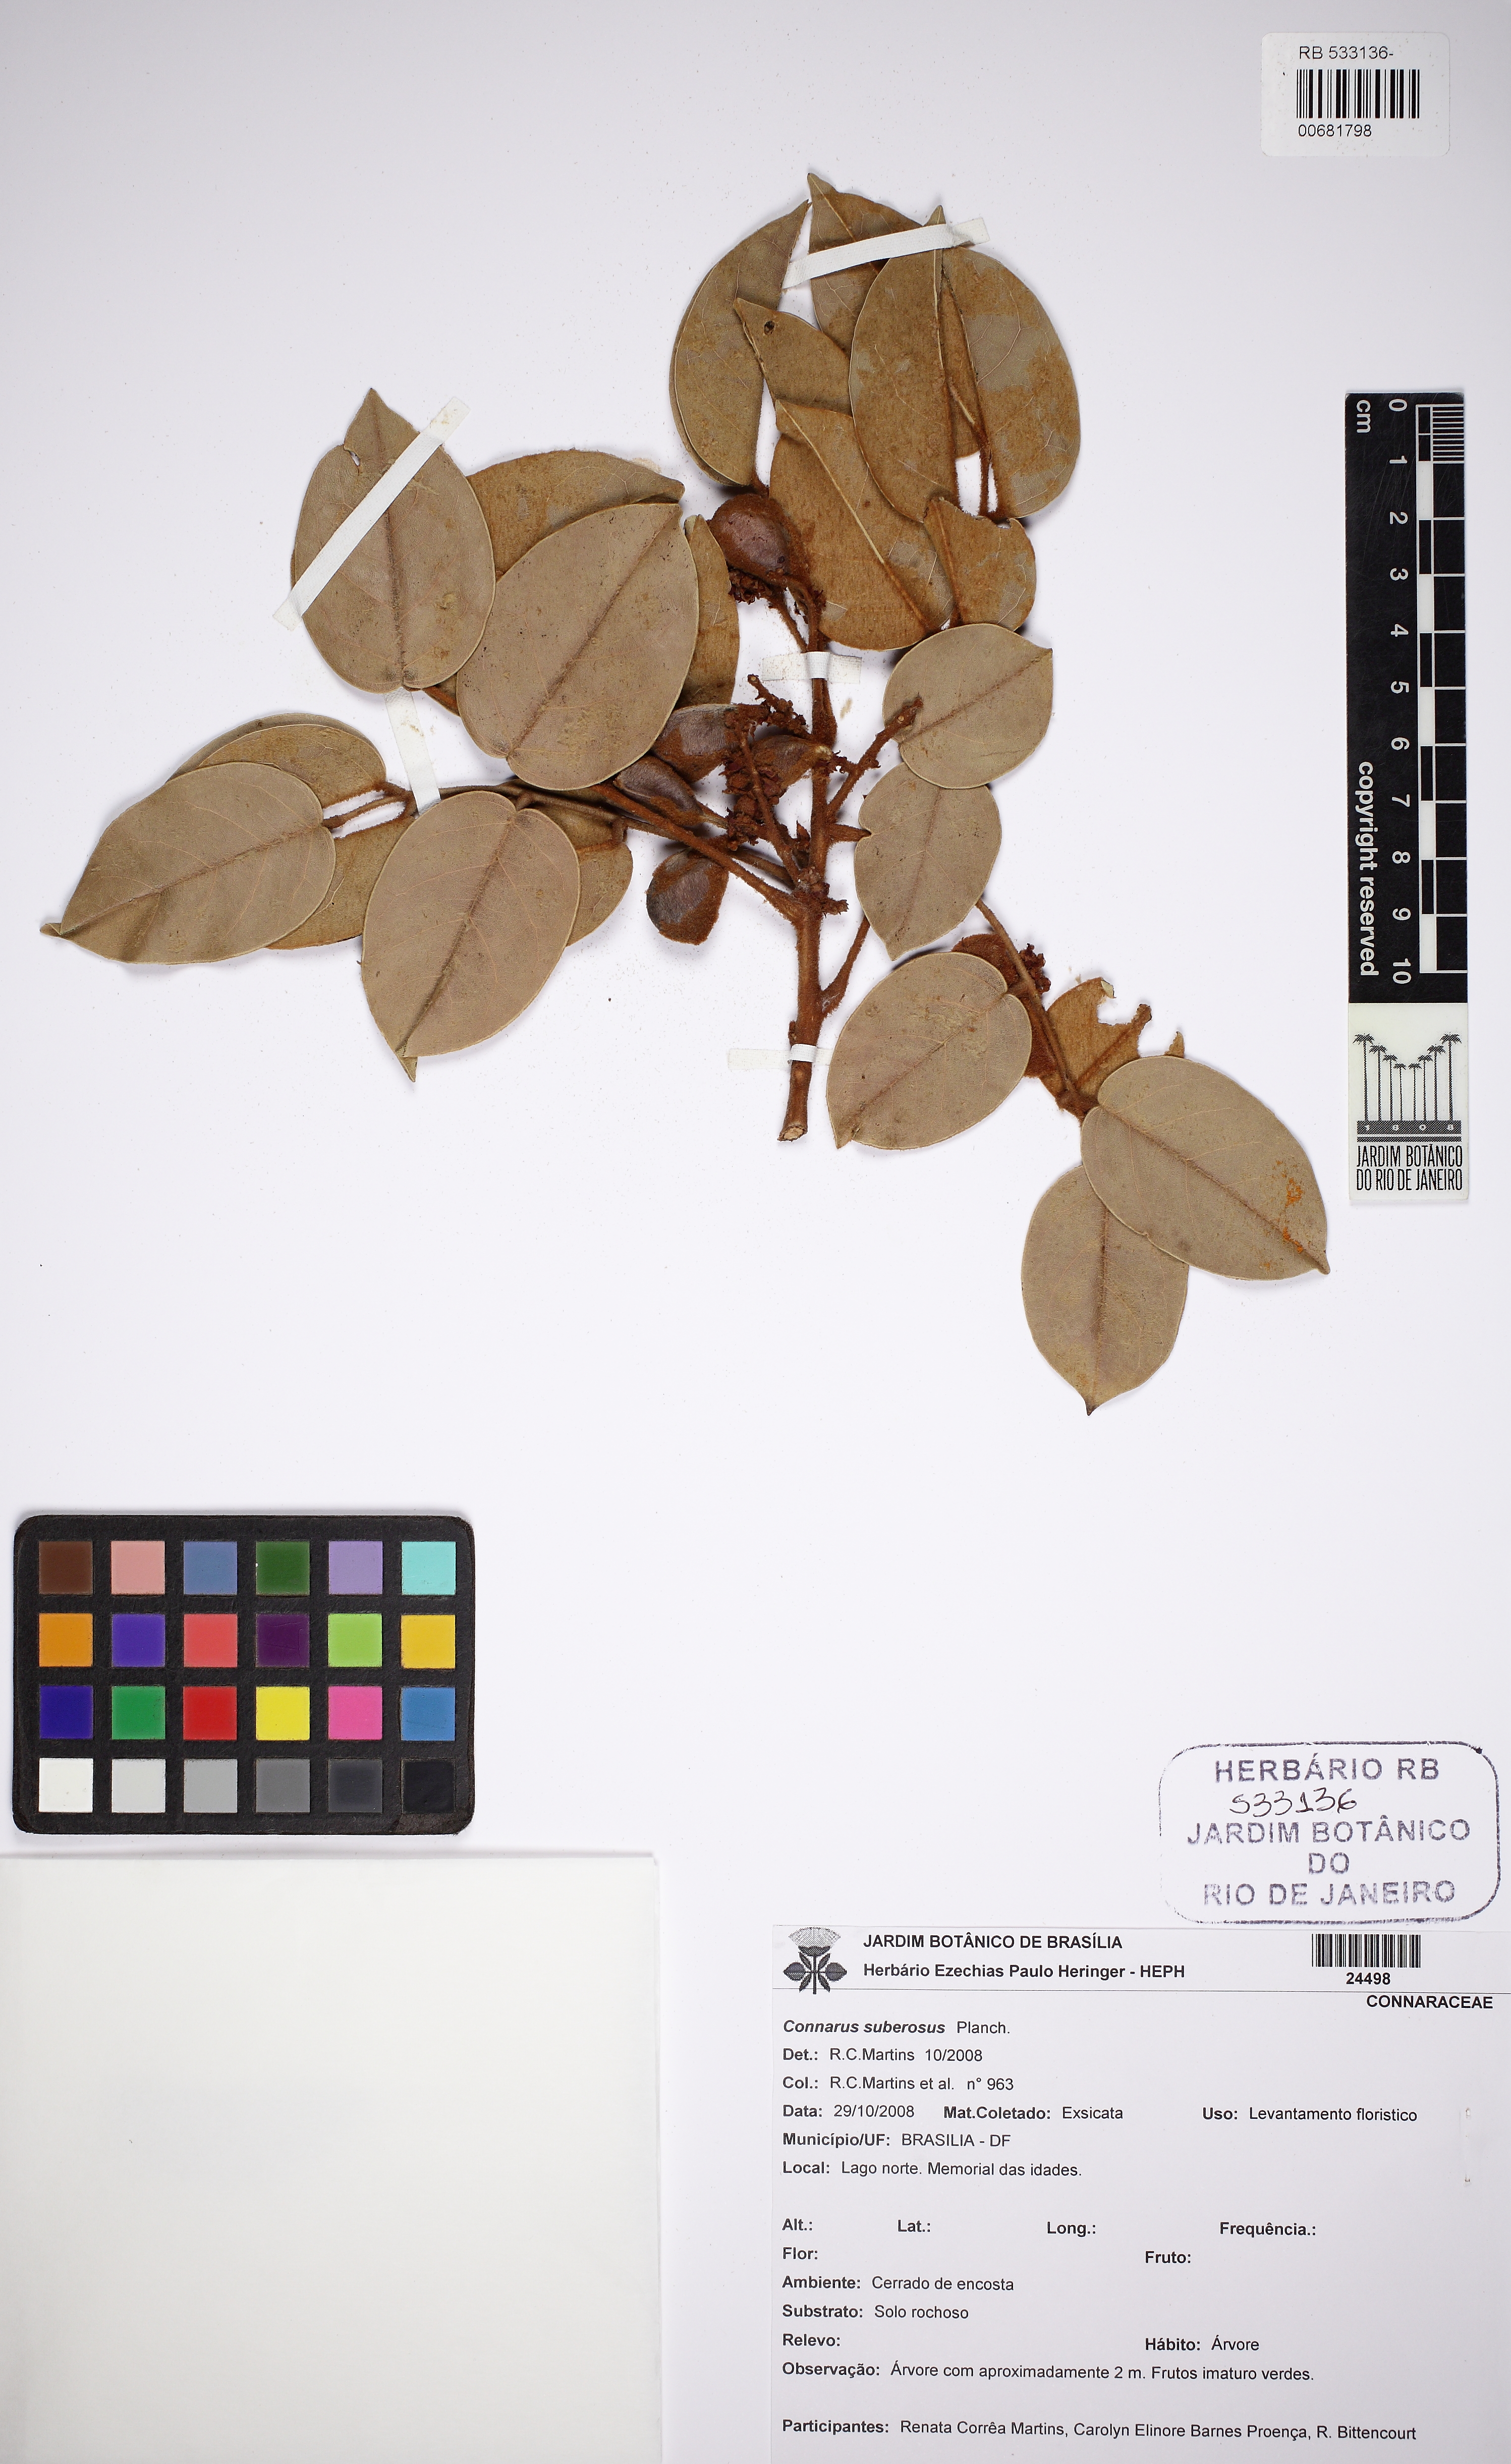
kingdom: Plantae
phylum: Tracheophyta
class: Magnoliopsida
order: Oxalidales
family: Connaraceae
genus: Connarus
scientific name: Connarus suberosus
